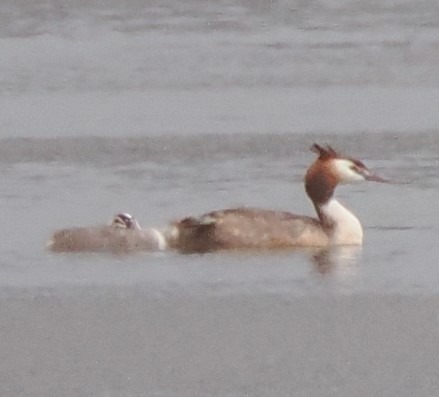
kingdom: Animalia
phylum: Chordata
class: Aves
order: Podicipediformes
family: Podicipedidae
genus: Podiceps
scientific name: Podiceps cristatus
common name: Toppet lappedykker
